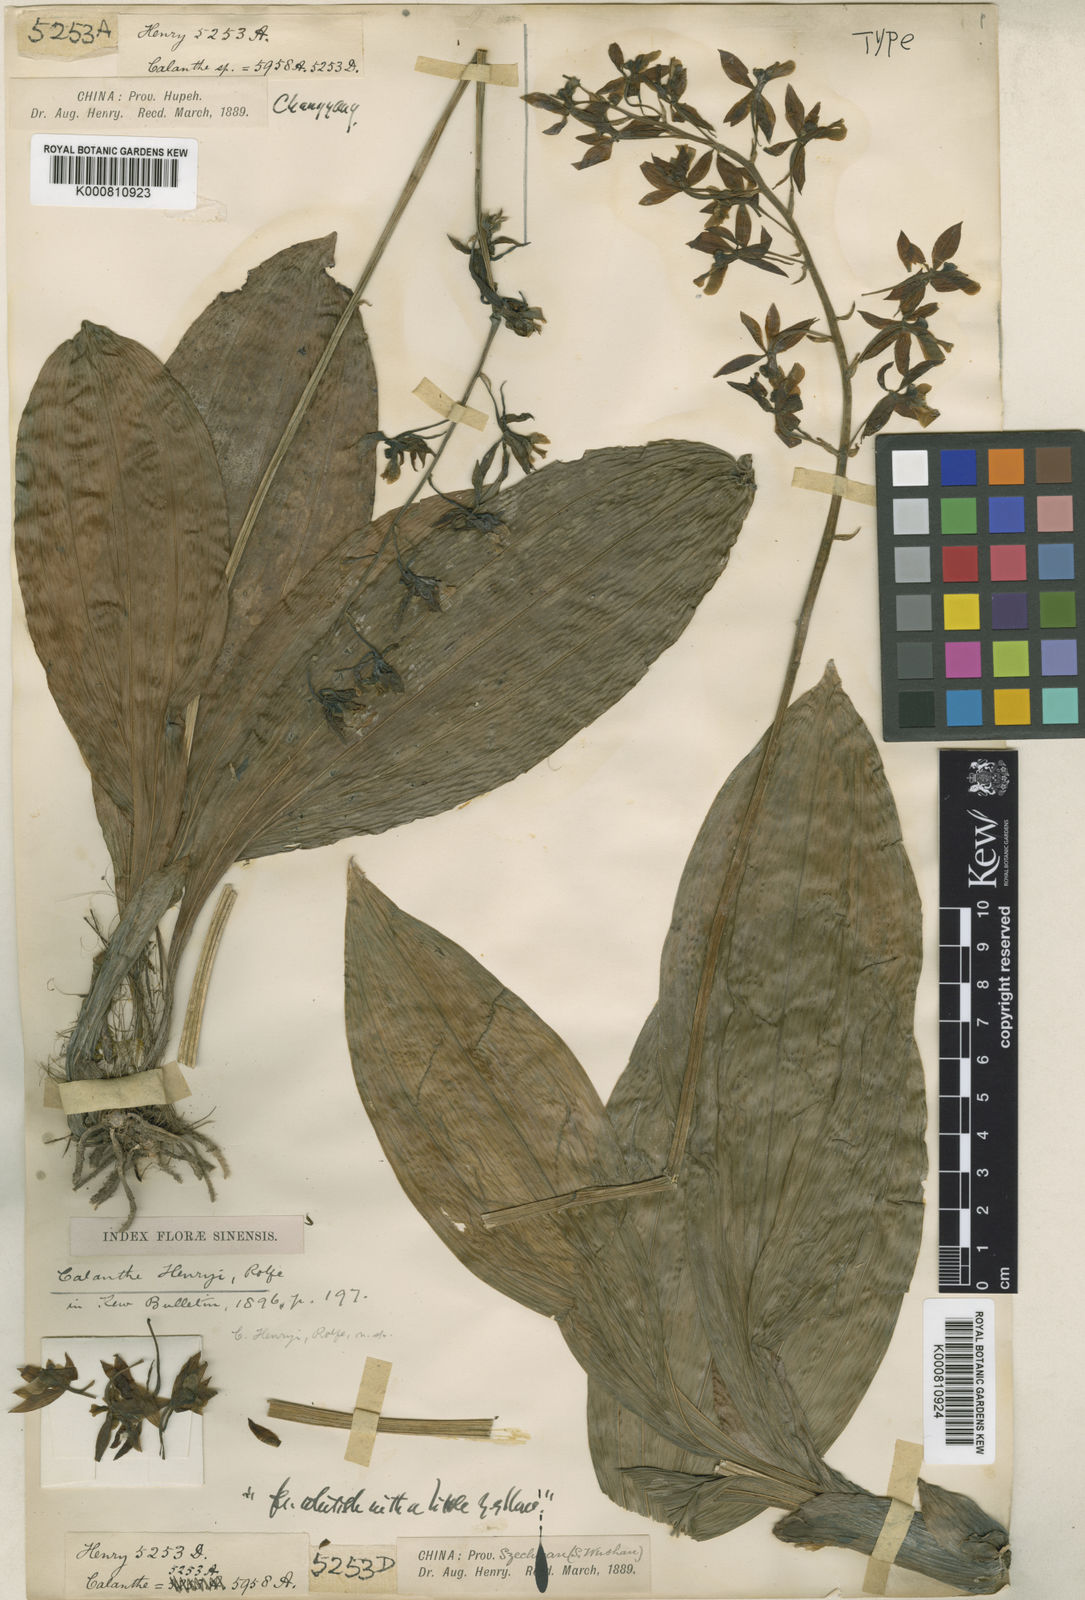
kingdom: Plantae
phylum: Tracheophyta
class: Liliopsida
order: Asparagales
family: Orchidaceae
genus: Calanthe
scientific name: Calanthe lamellosa
